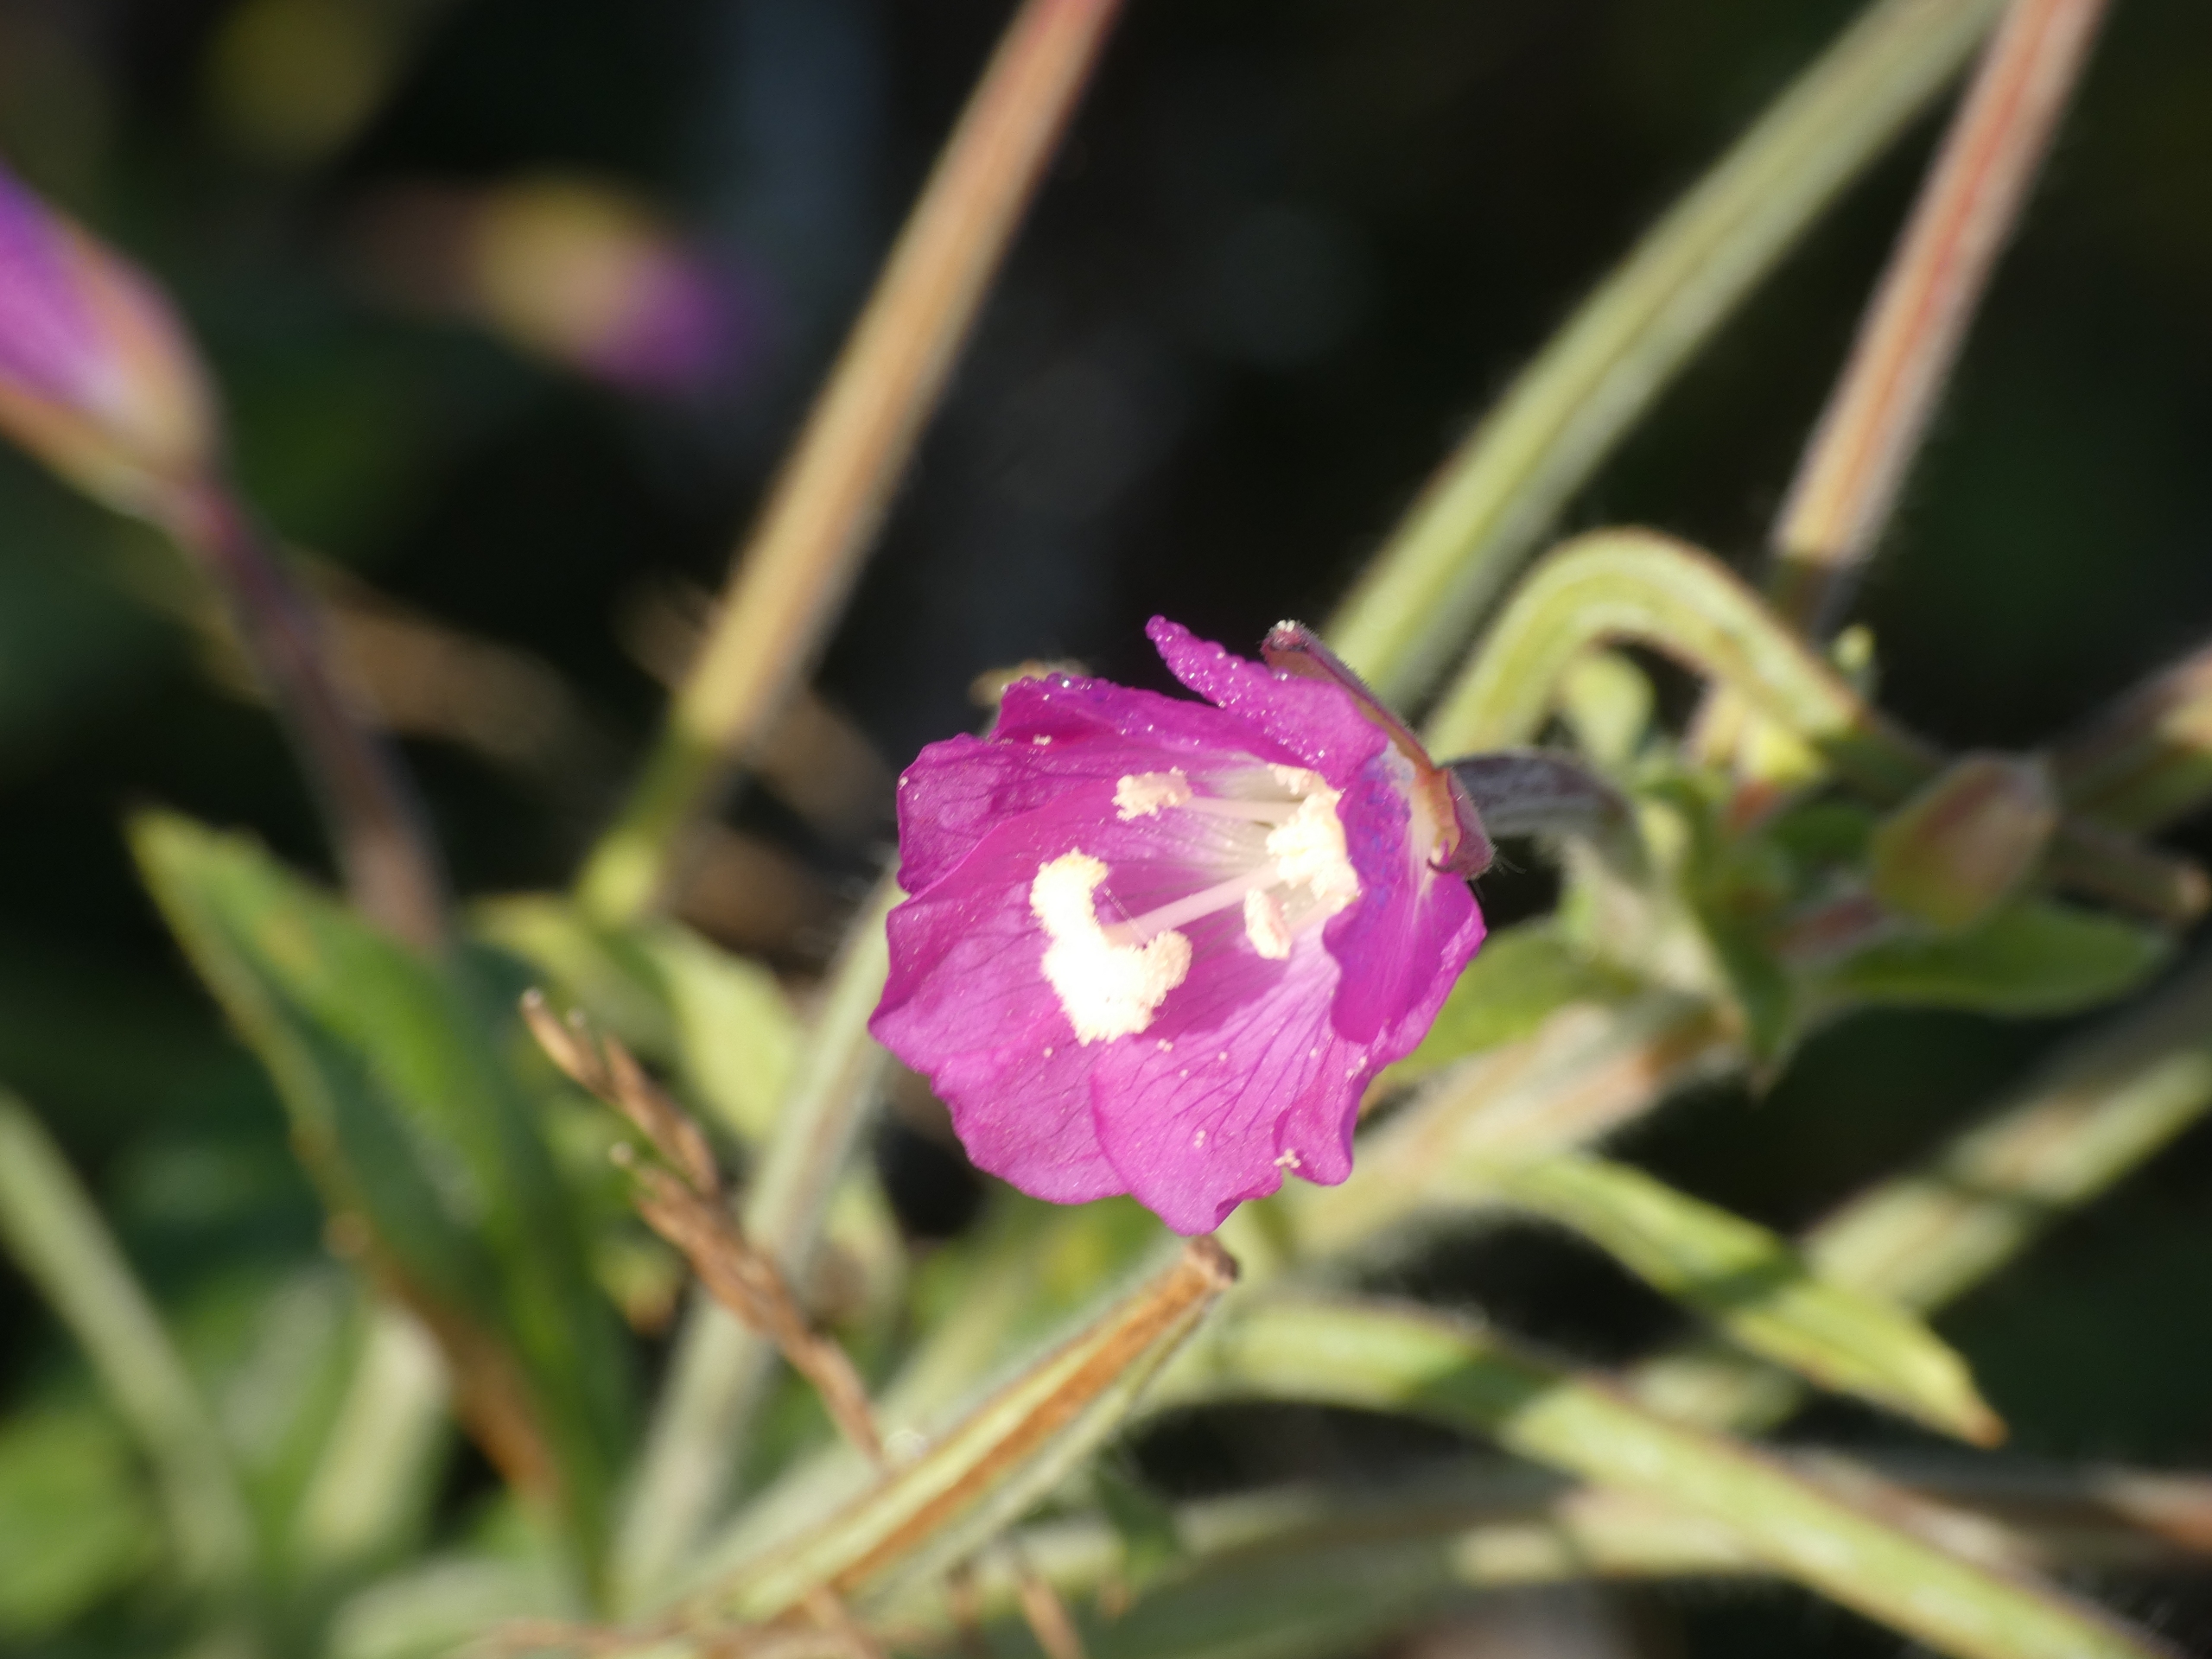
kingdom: Plantae
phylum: Tracheophyta
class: Magnoliopsida
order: Myrtales
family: Onagraceae
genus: Epilobium
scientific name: Epilobium hirsutum
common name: Lådden dueurt
